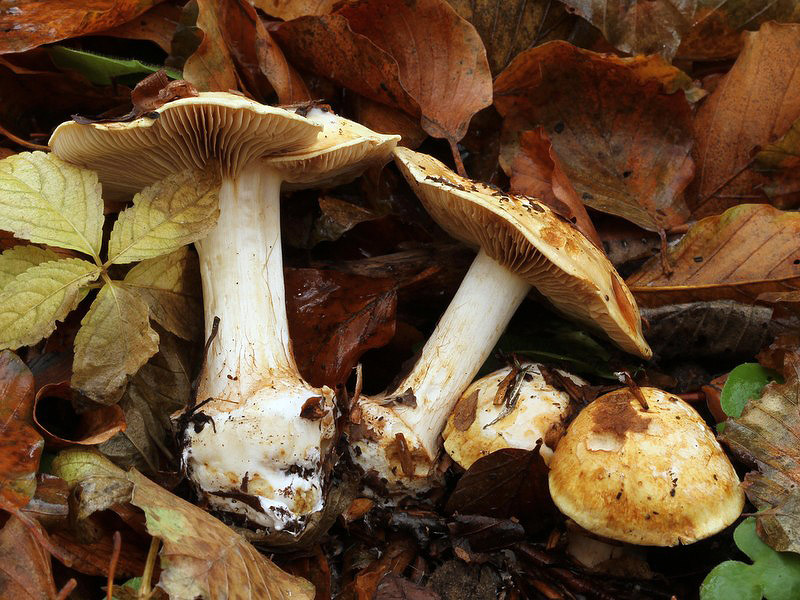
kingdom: Fungi
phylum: Basidiomycota
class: Agaricomycetes
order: Agaricales
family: Cortinariaceae
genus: Calonarius
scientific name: Calonarius osmophorus
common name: duft-slørhat
